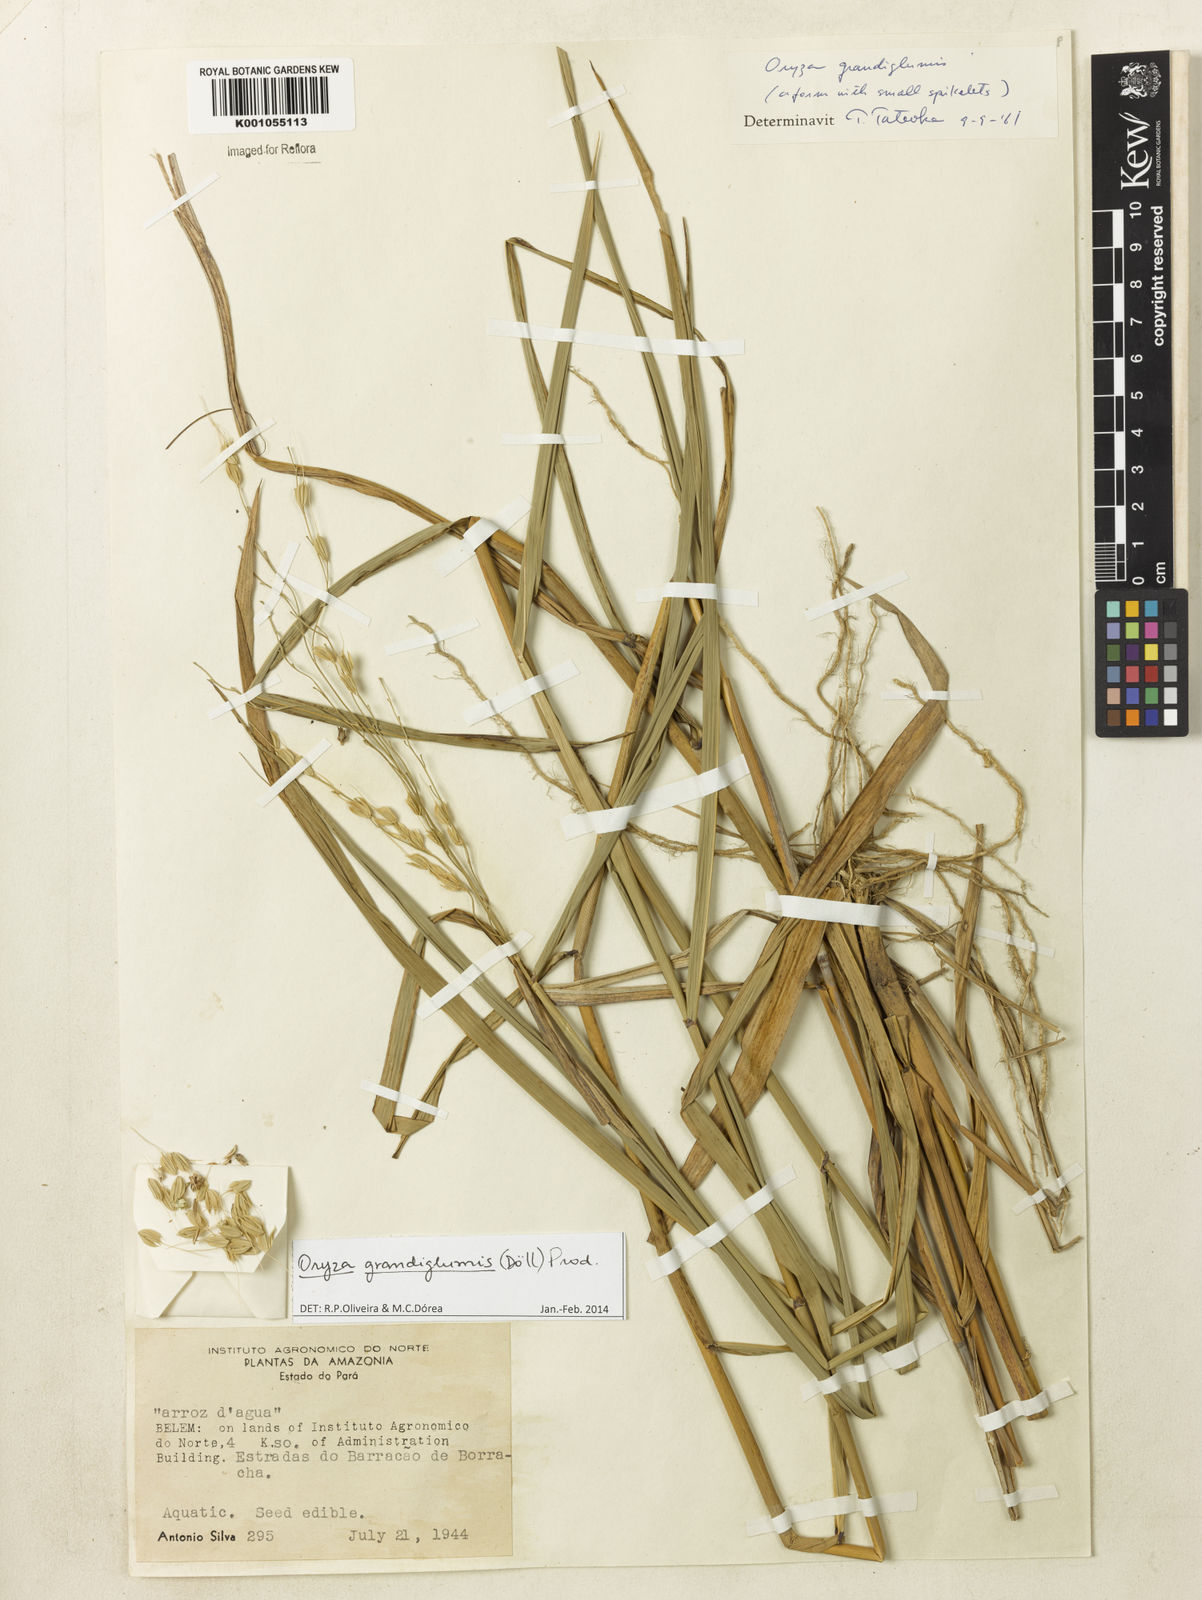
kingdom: Plantae
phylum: Tracheophyta
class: Liliopsida
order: Poales
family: Poaceae
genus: Oryza
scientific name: Oryza
